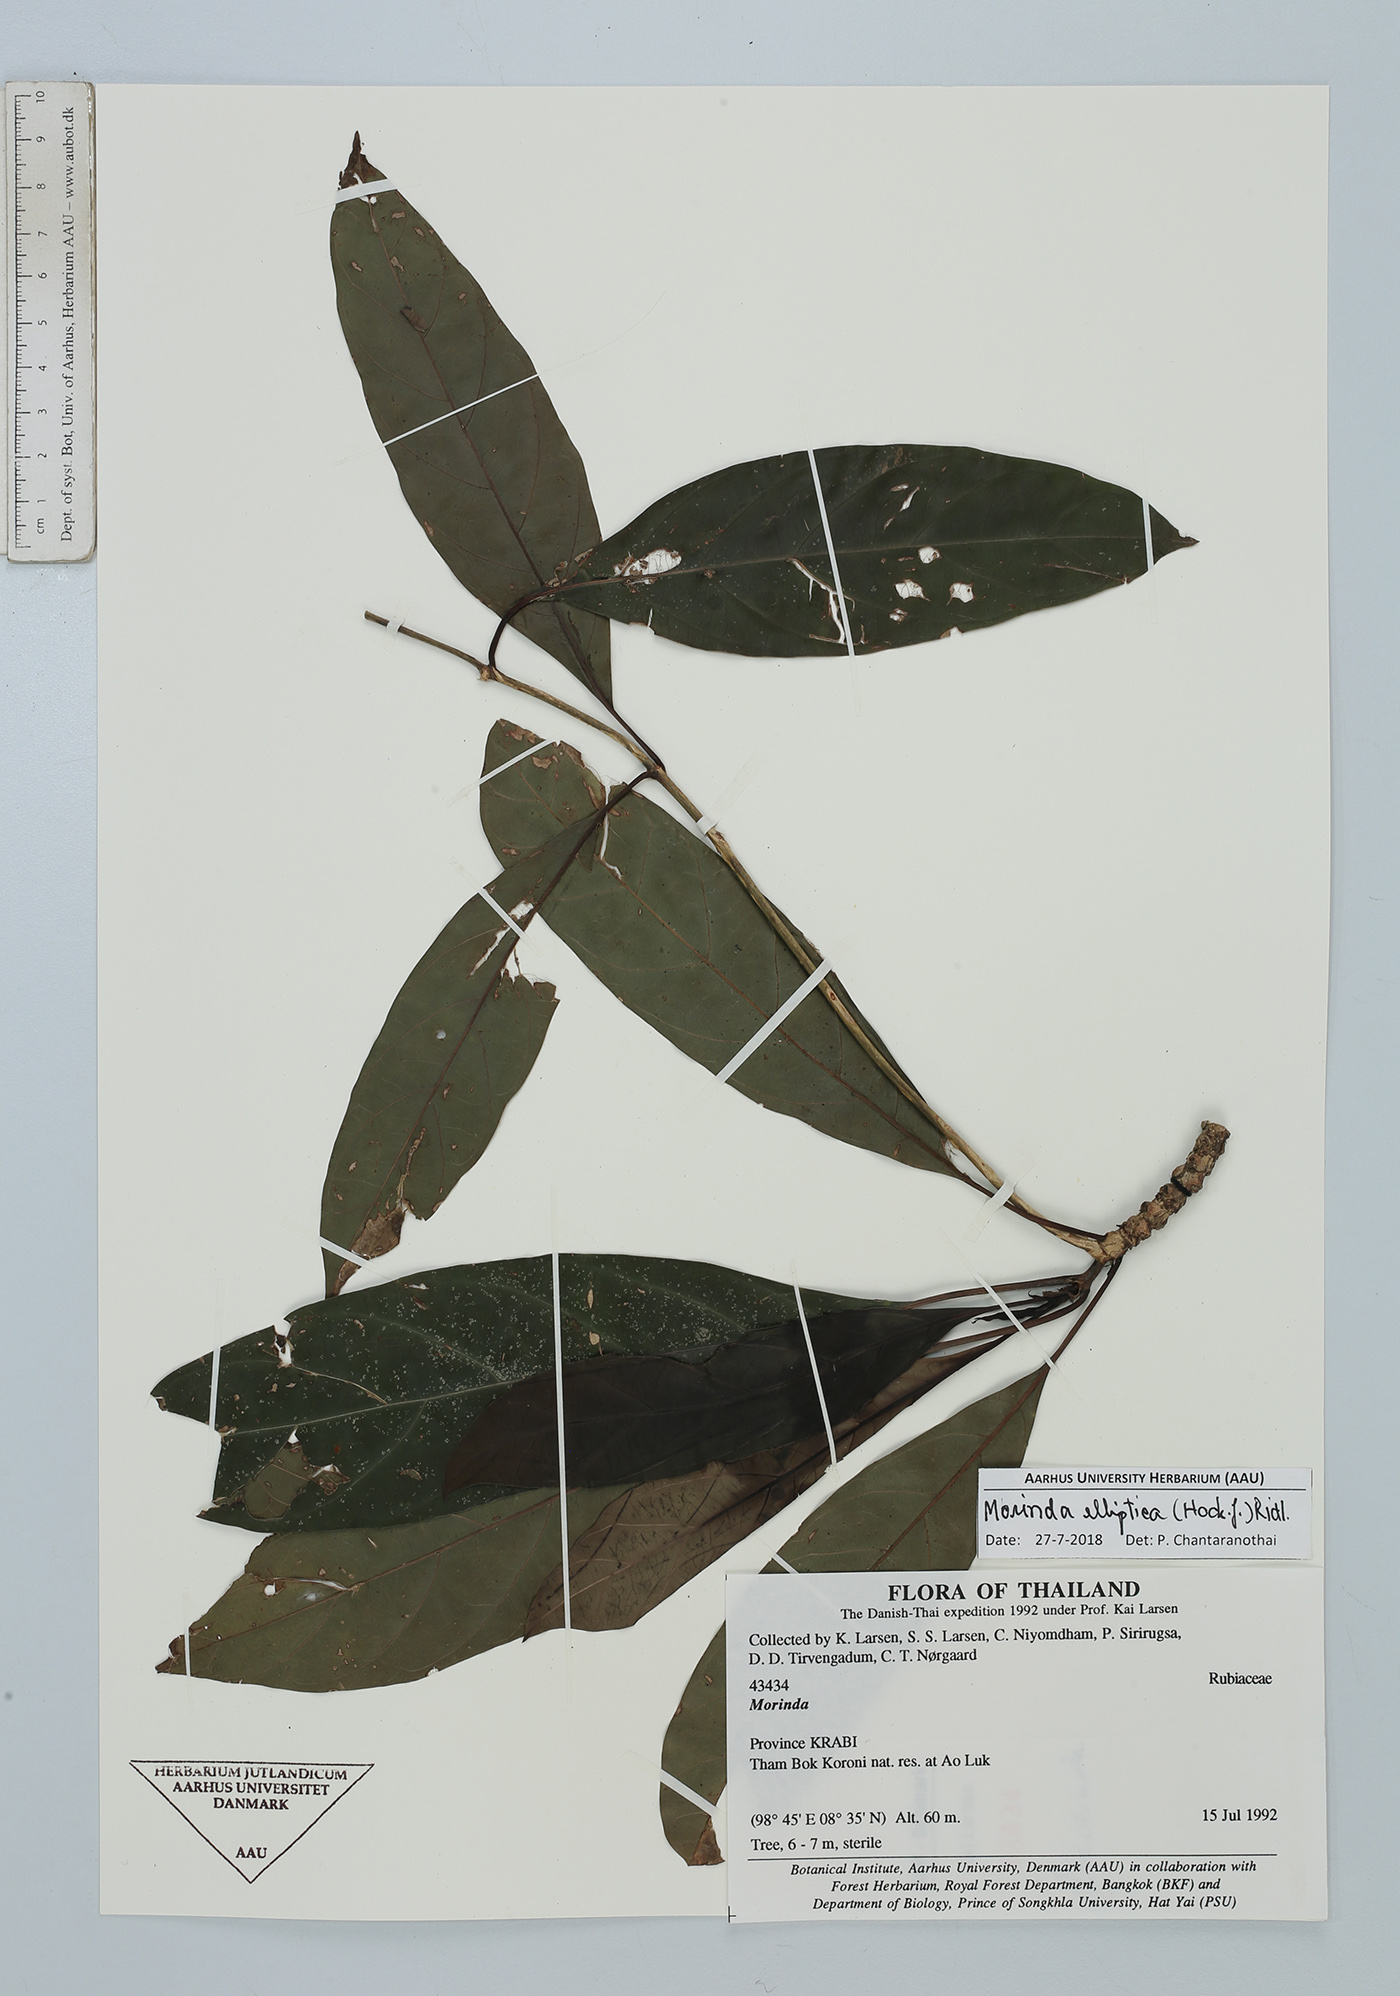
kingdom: Plantae
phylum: Tracheophyta
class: Magnoliopsida
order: Gentianales
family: Rubiaceae
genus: Morinda
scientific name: Morinda elliptica
